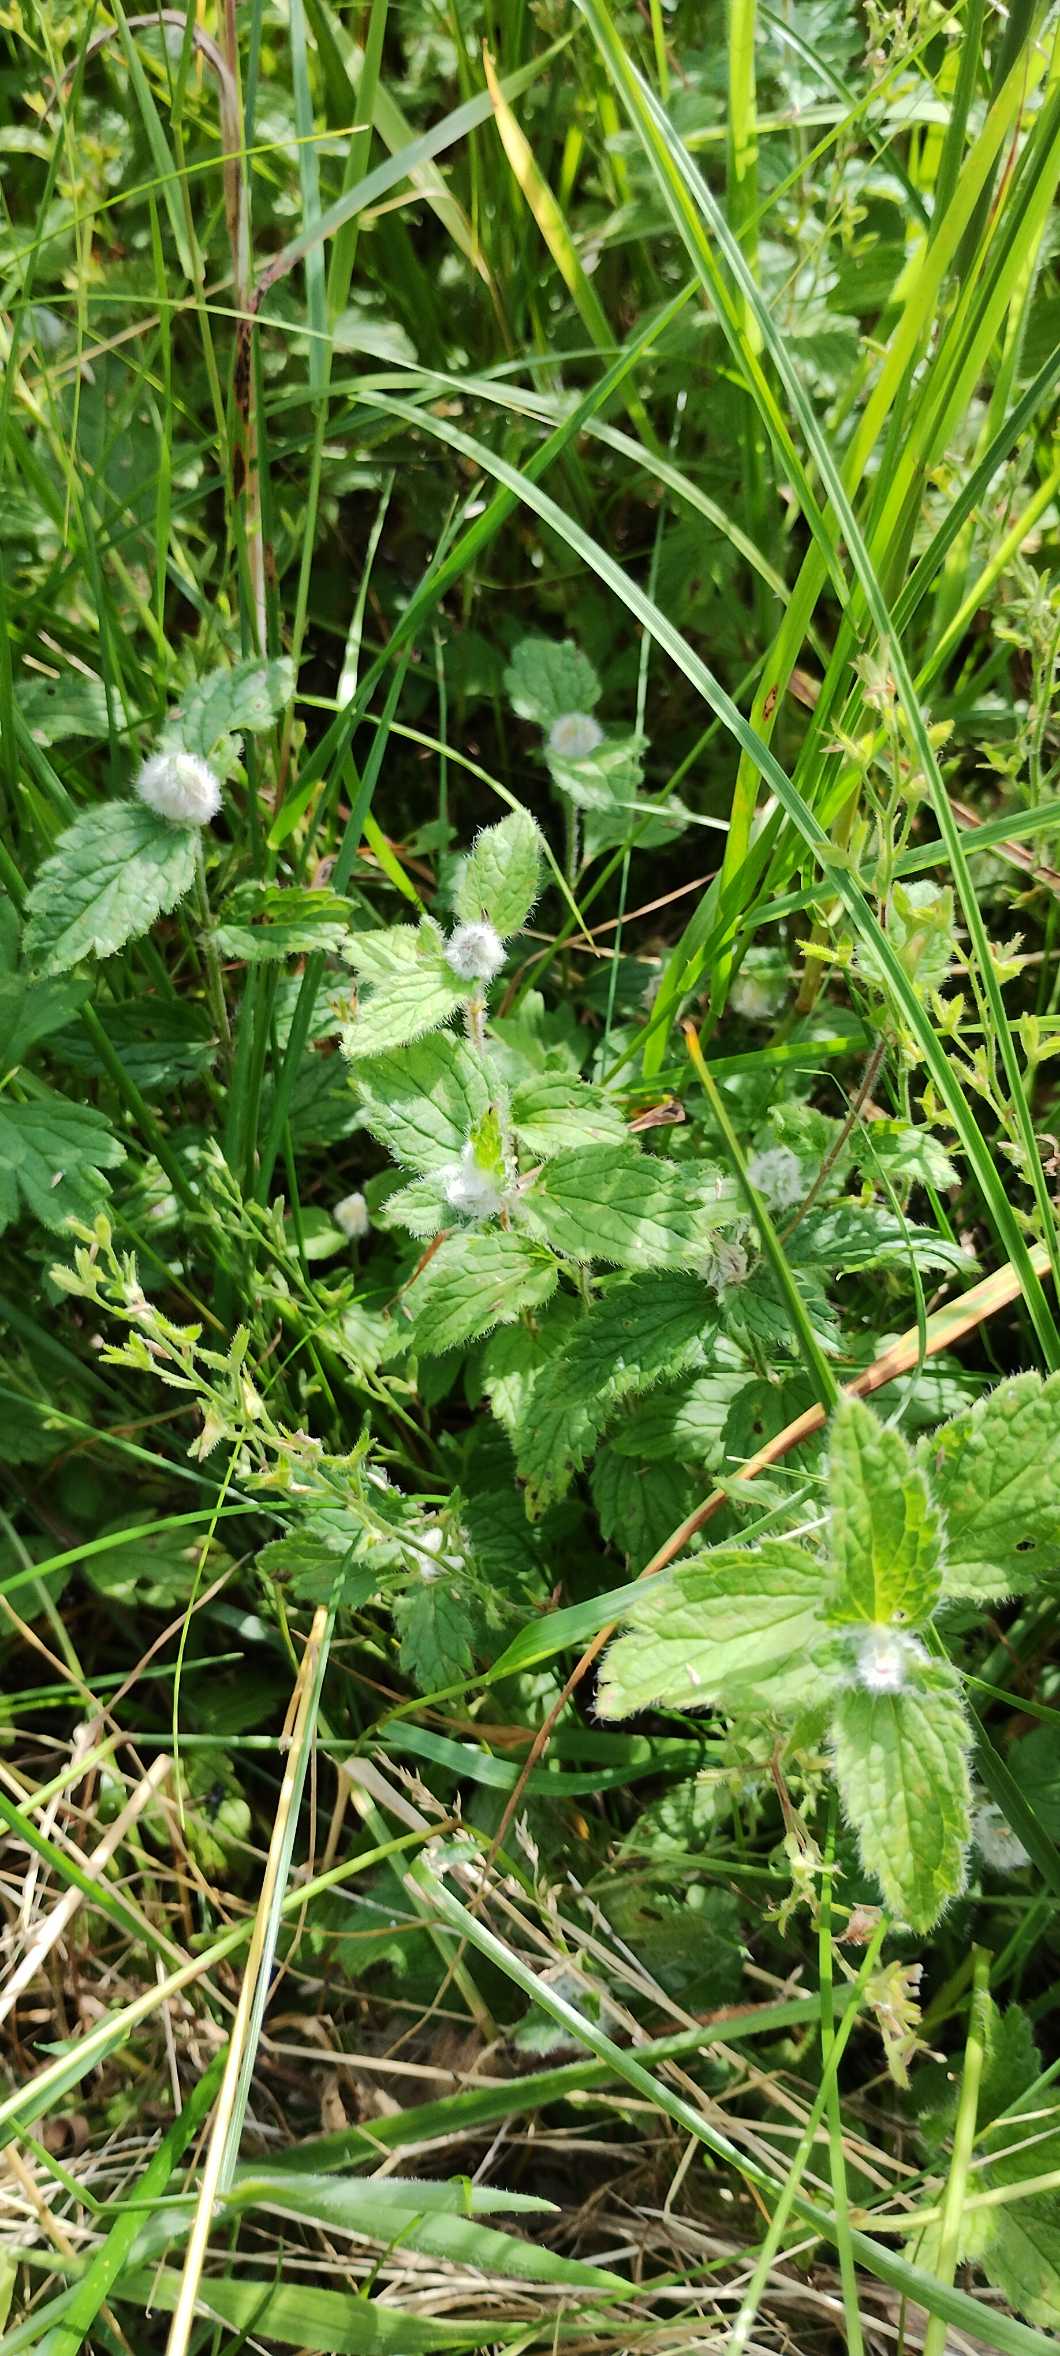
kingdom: Animalia
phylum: Arthropoda
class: Insecta
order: Diptera
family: Cecidomyiidae
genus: Jaapiella
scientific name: Jaapiella veronicae
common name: Ærenprisgalmyg
